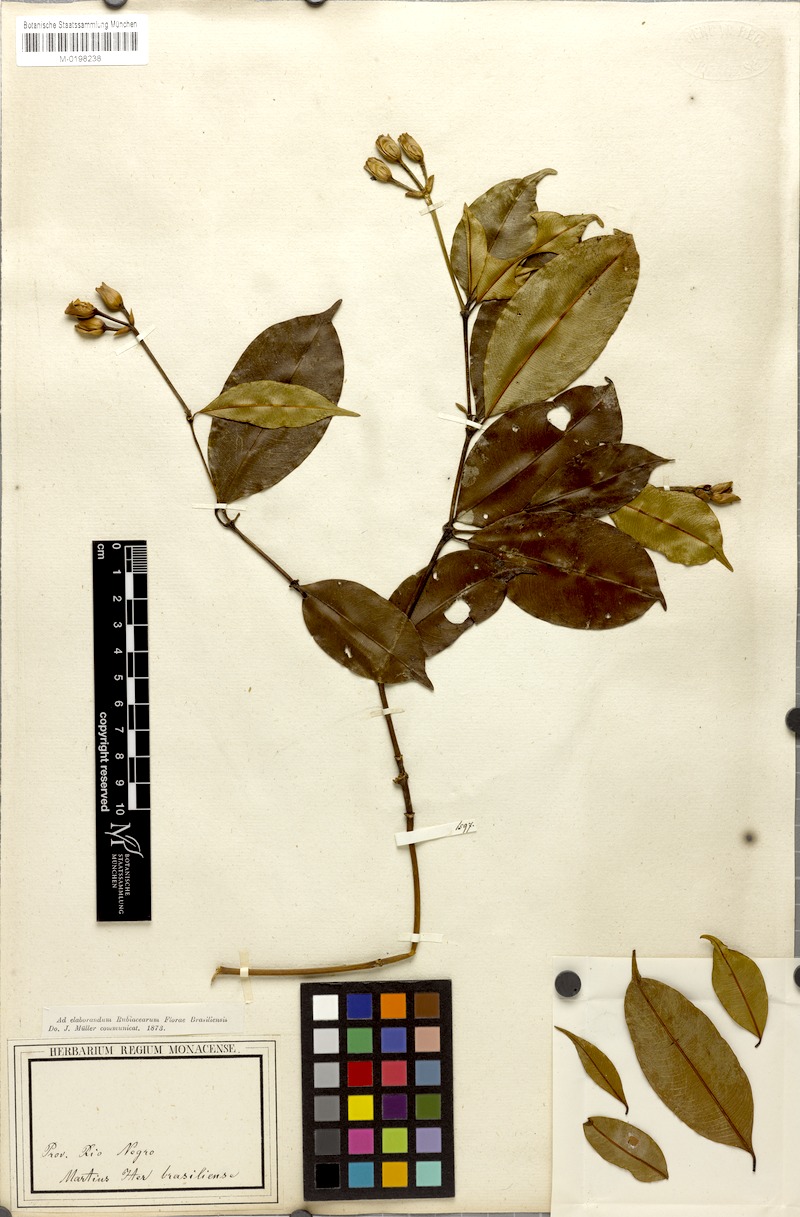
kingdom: Plantae
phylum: Tracheophyta
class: Magnoliopsida
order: Gentianales
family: Rubiaceae
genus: Palicourea
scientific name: Palicourea triadica
